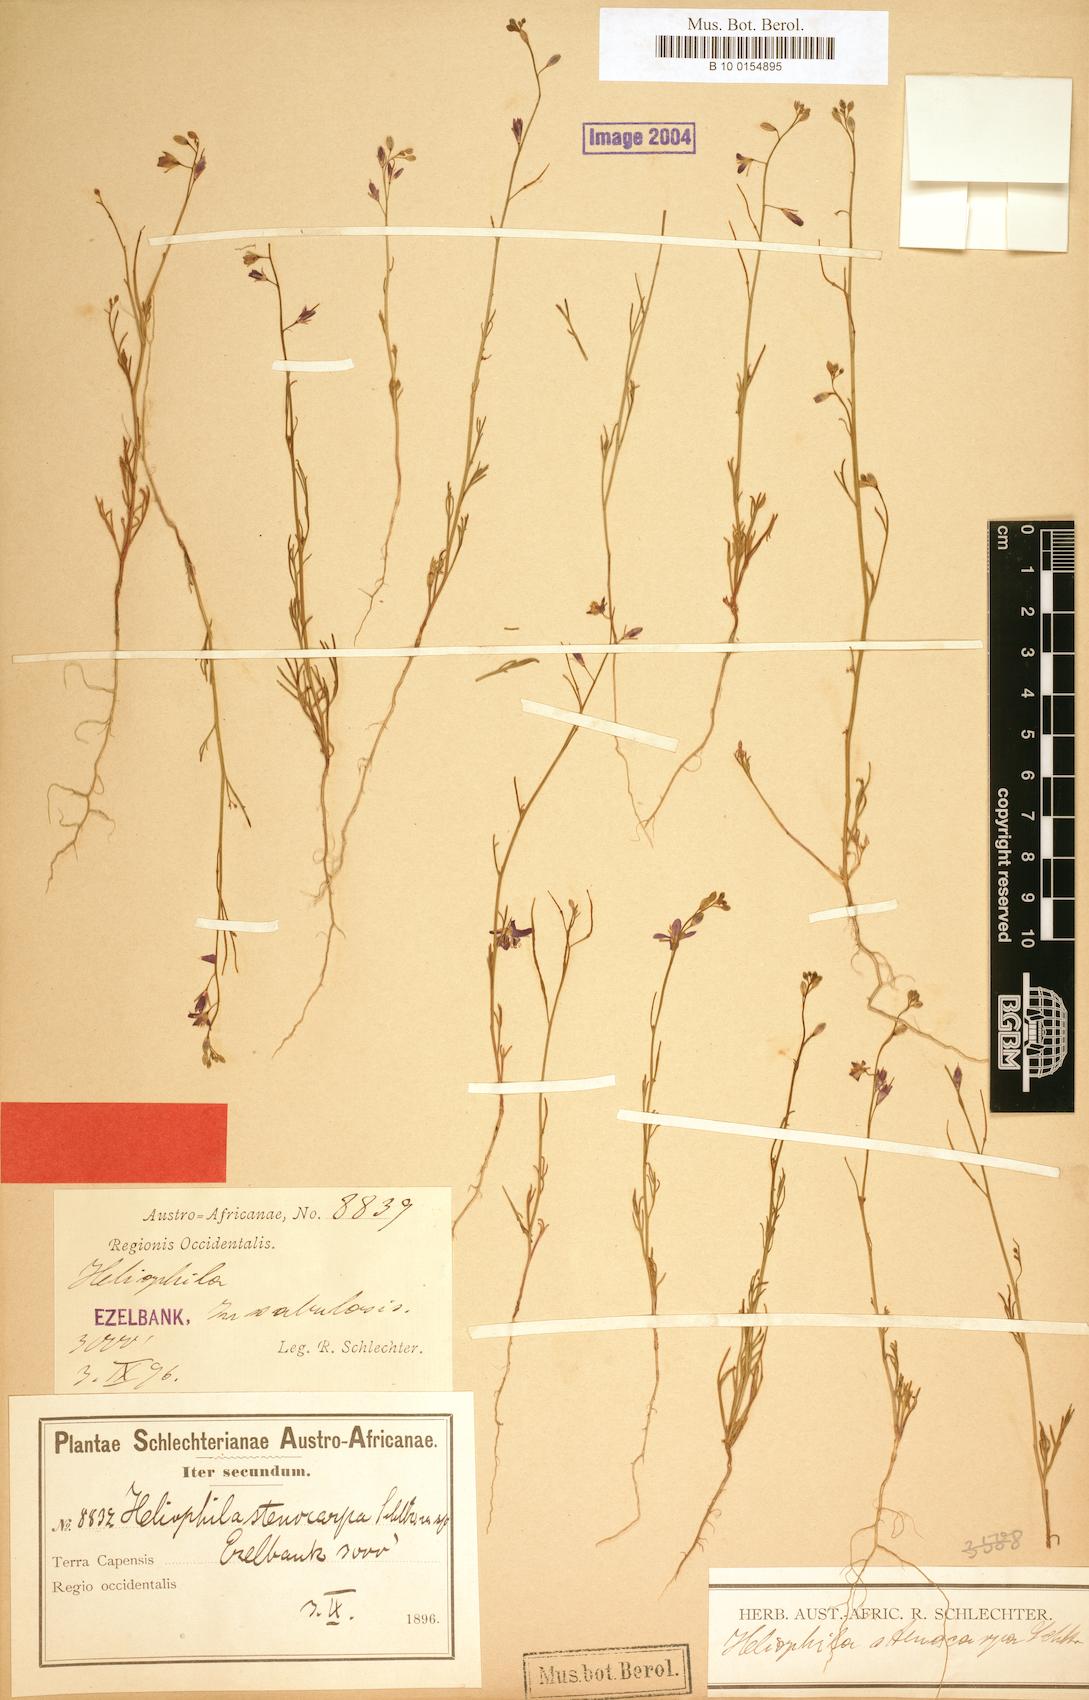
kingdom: Plantae
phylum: Tracheophyta
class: Magnoliopsida
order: Brassicales
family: Brassicaceae
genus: Heliophila
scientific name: Heliophila arenosa
